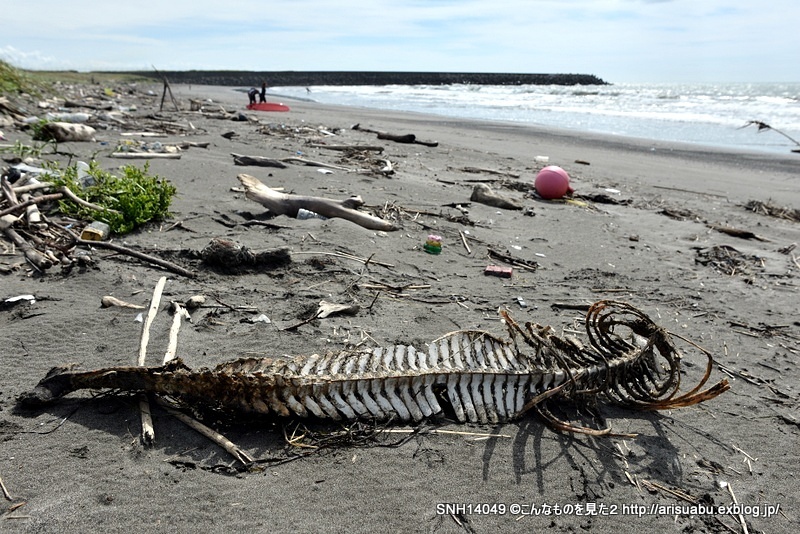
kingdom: Animalia
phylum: Chordata
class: Mammalia
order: Cetacea
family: Phocoenidae
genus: Phocoena
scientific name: Phocoena phocoena
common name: Harbour porpoise
